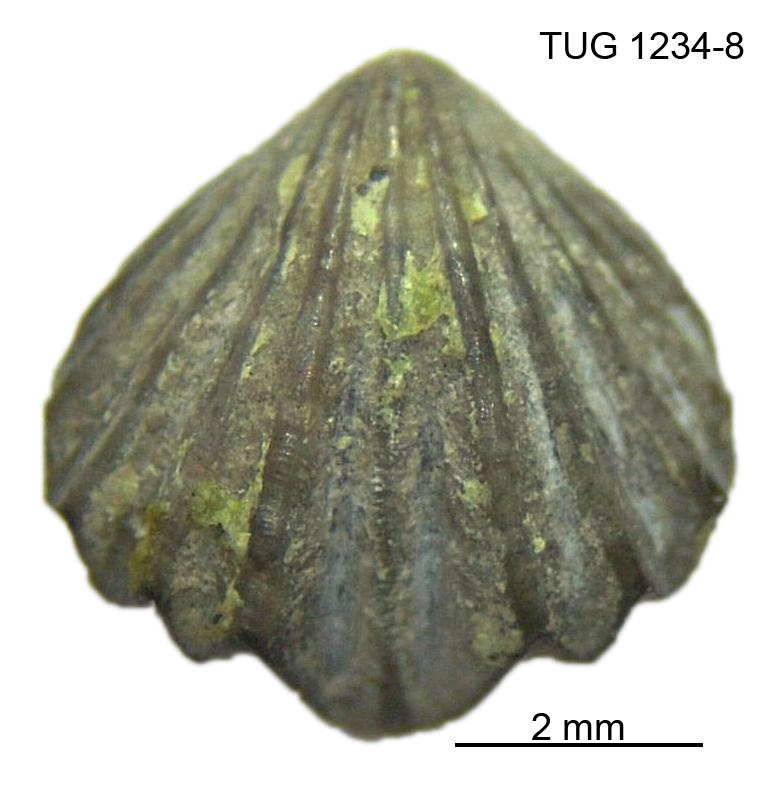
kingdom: Animalia
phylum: Brachiopoda
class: Rhynchonellata
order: Rhynchonellida
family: Rhynchotrematidae
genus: Rhynchotrema
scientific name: Rhynchotrema parva
